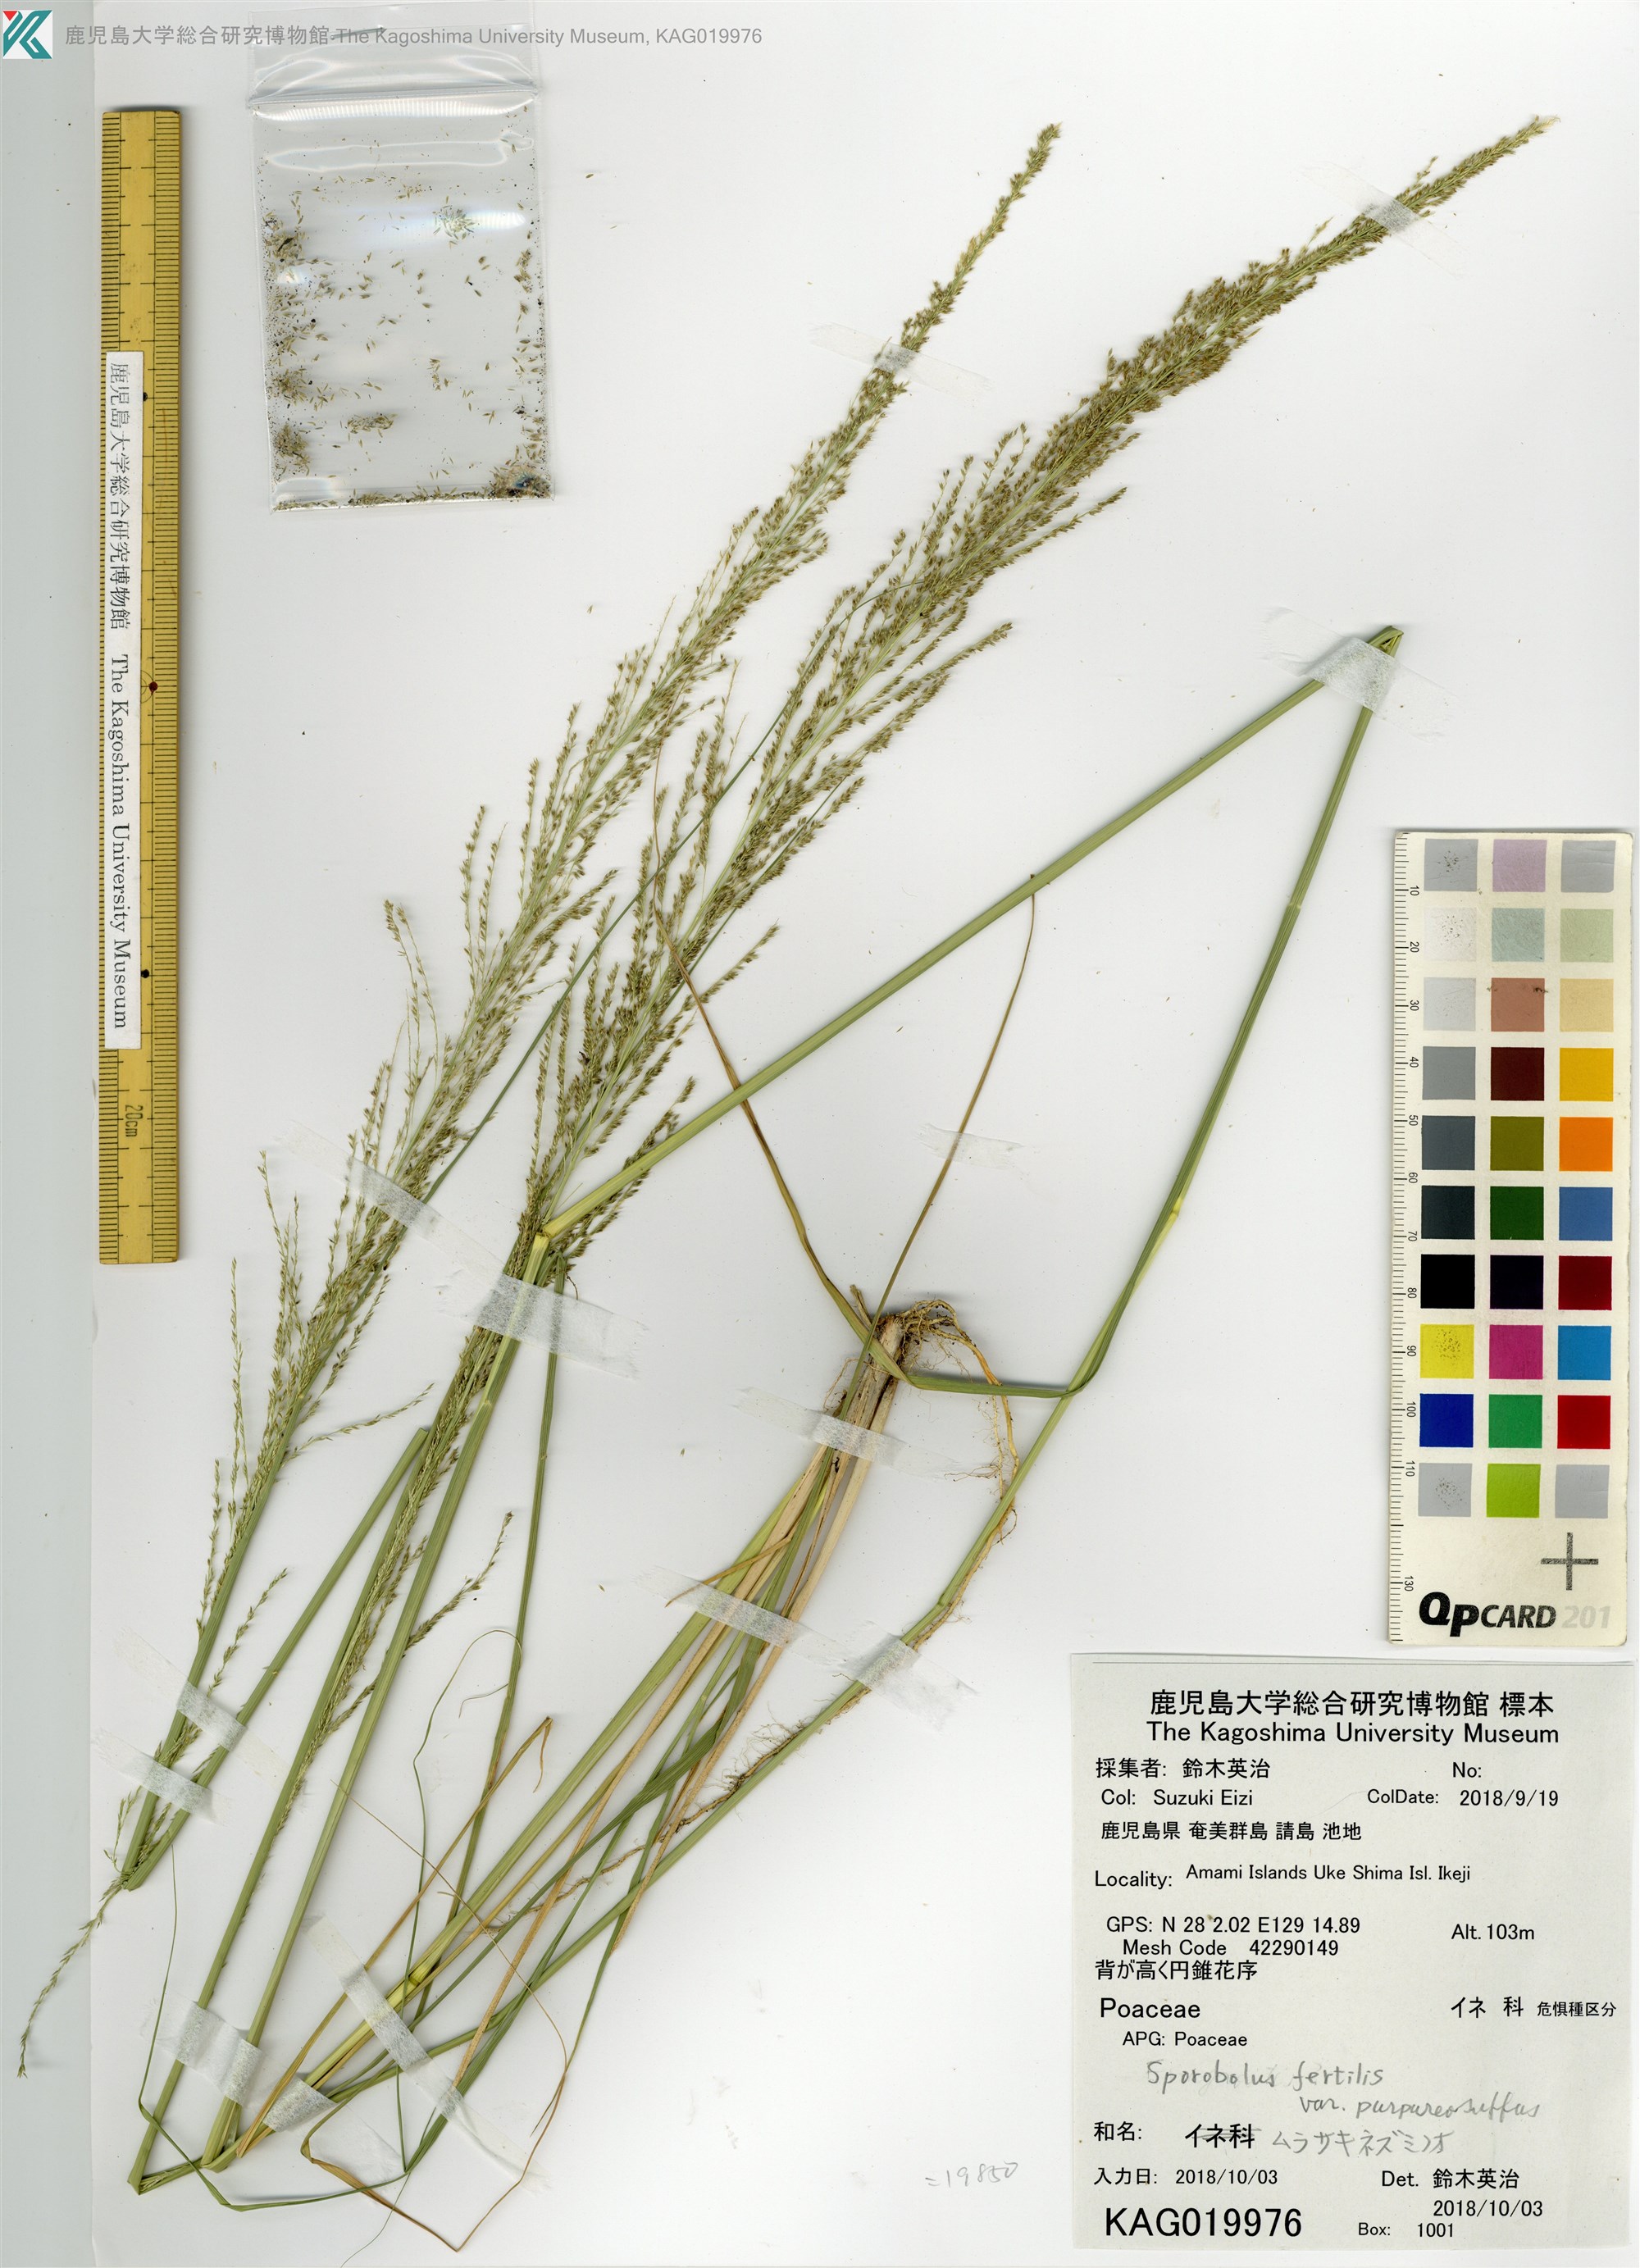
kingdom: Plantae
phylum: Tracheophyta
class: Liliopsida
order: Poales
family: Poaceae
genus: Sporobolus
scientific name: Sporobolus fertilis
